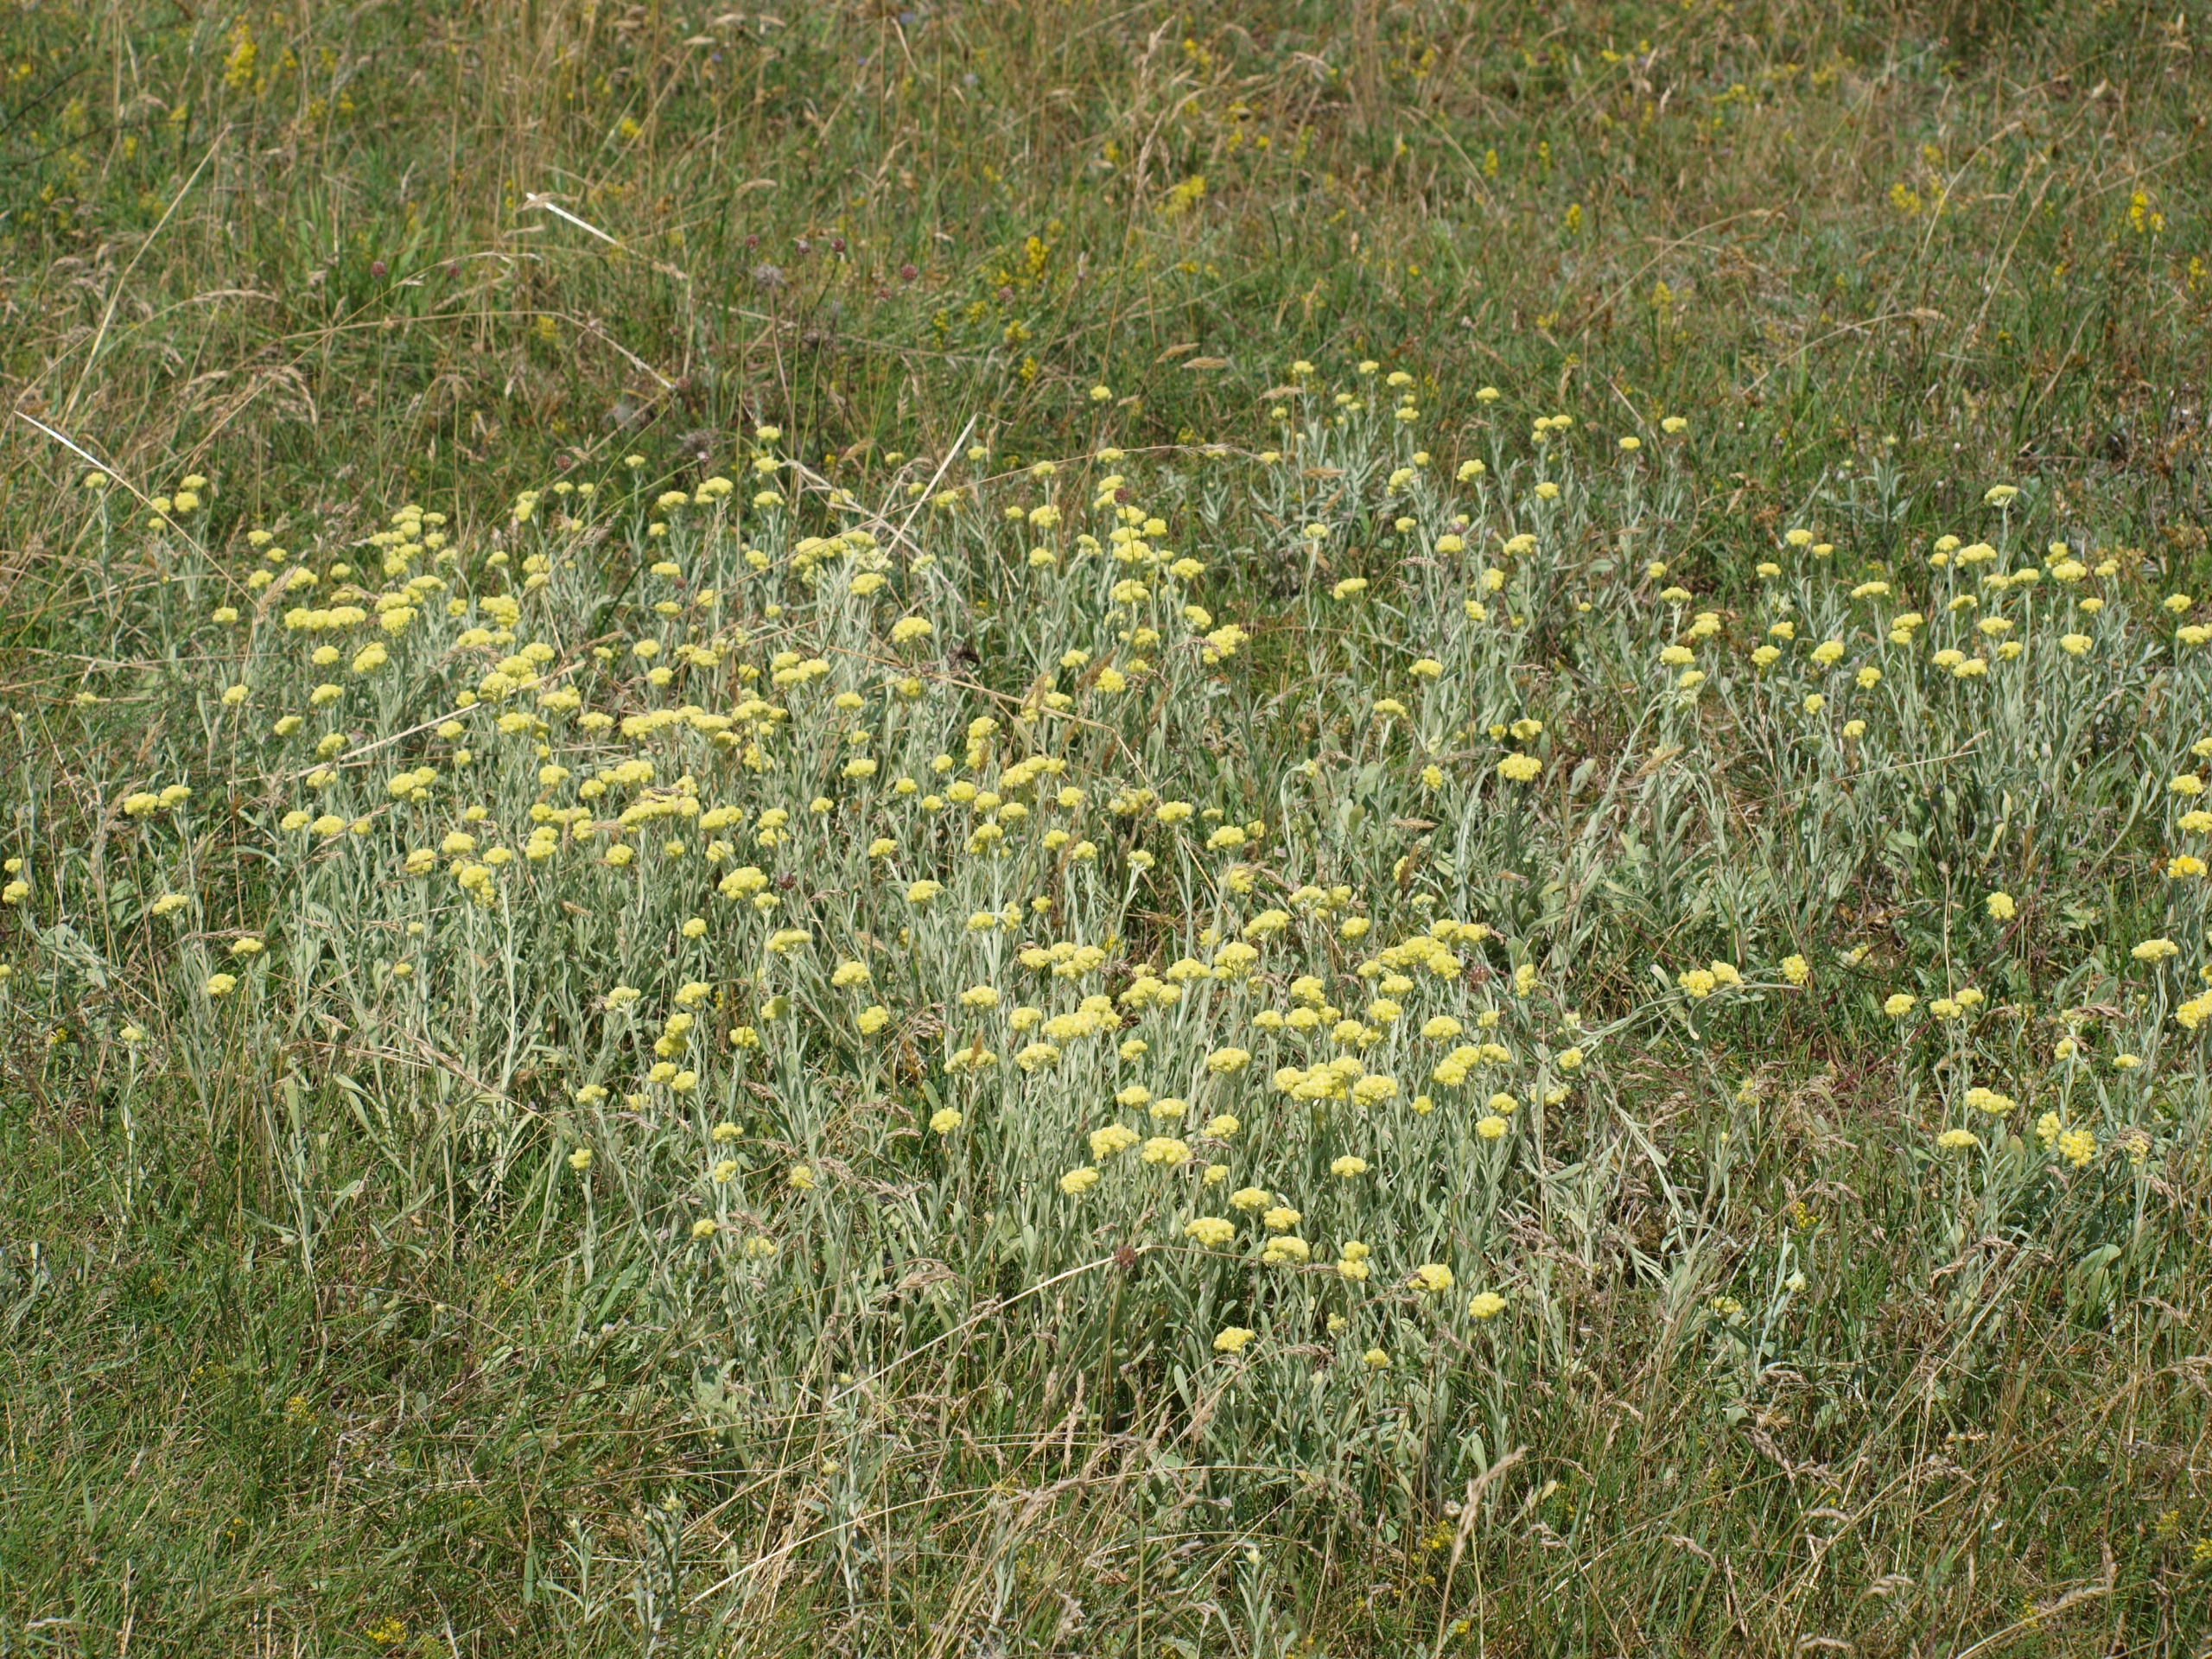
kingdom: Plantae
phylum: Tracheophyta
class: Magnoliopsida
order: Asterales
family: Asteraceae
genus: Helichrysum
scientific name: Helichrysum arenarium
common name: Gul evighedsblomst
